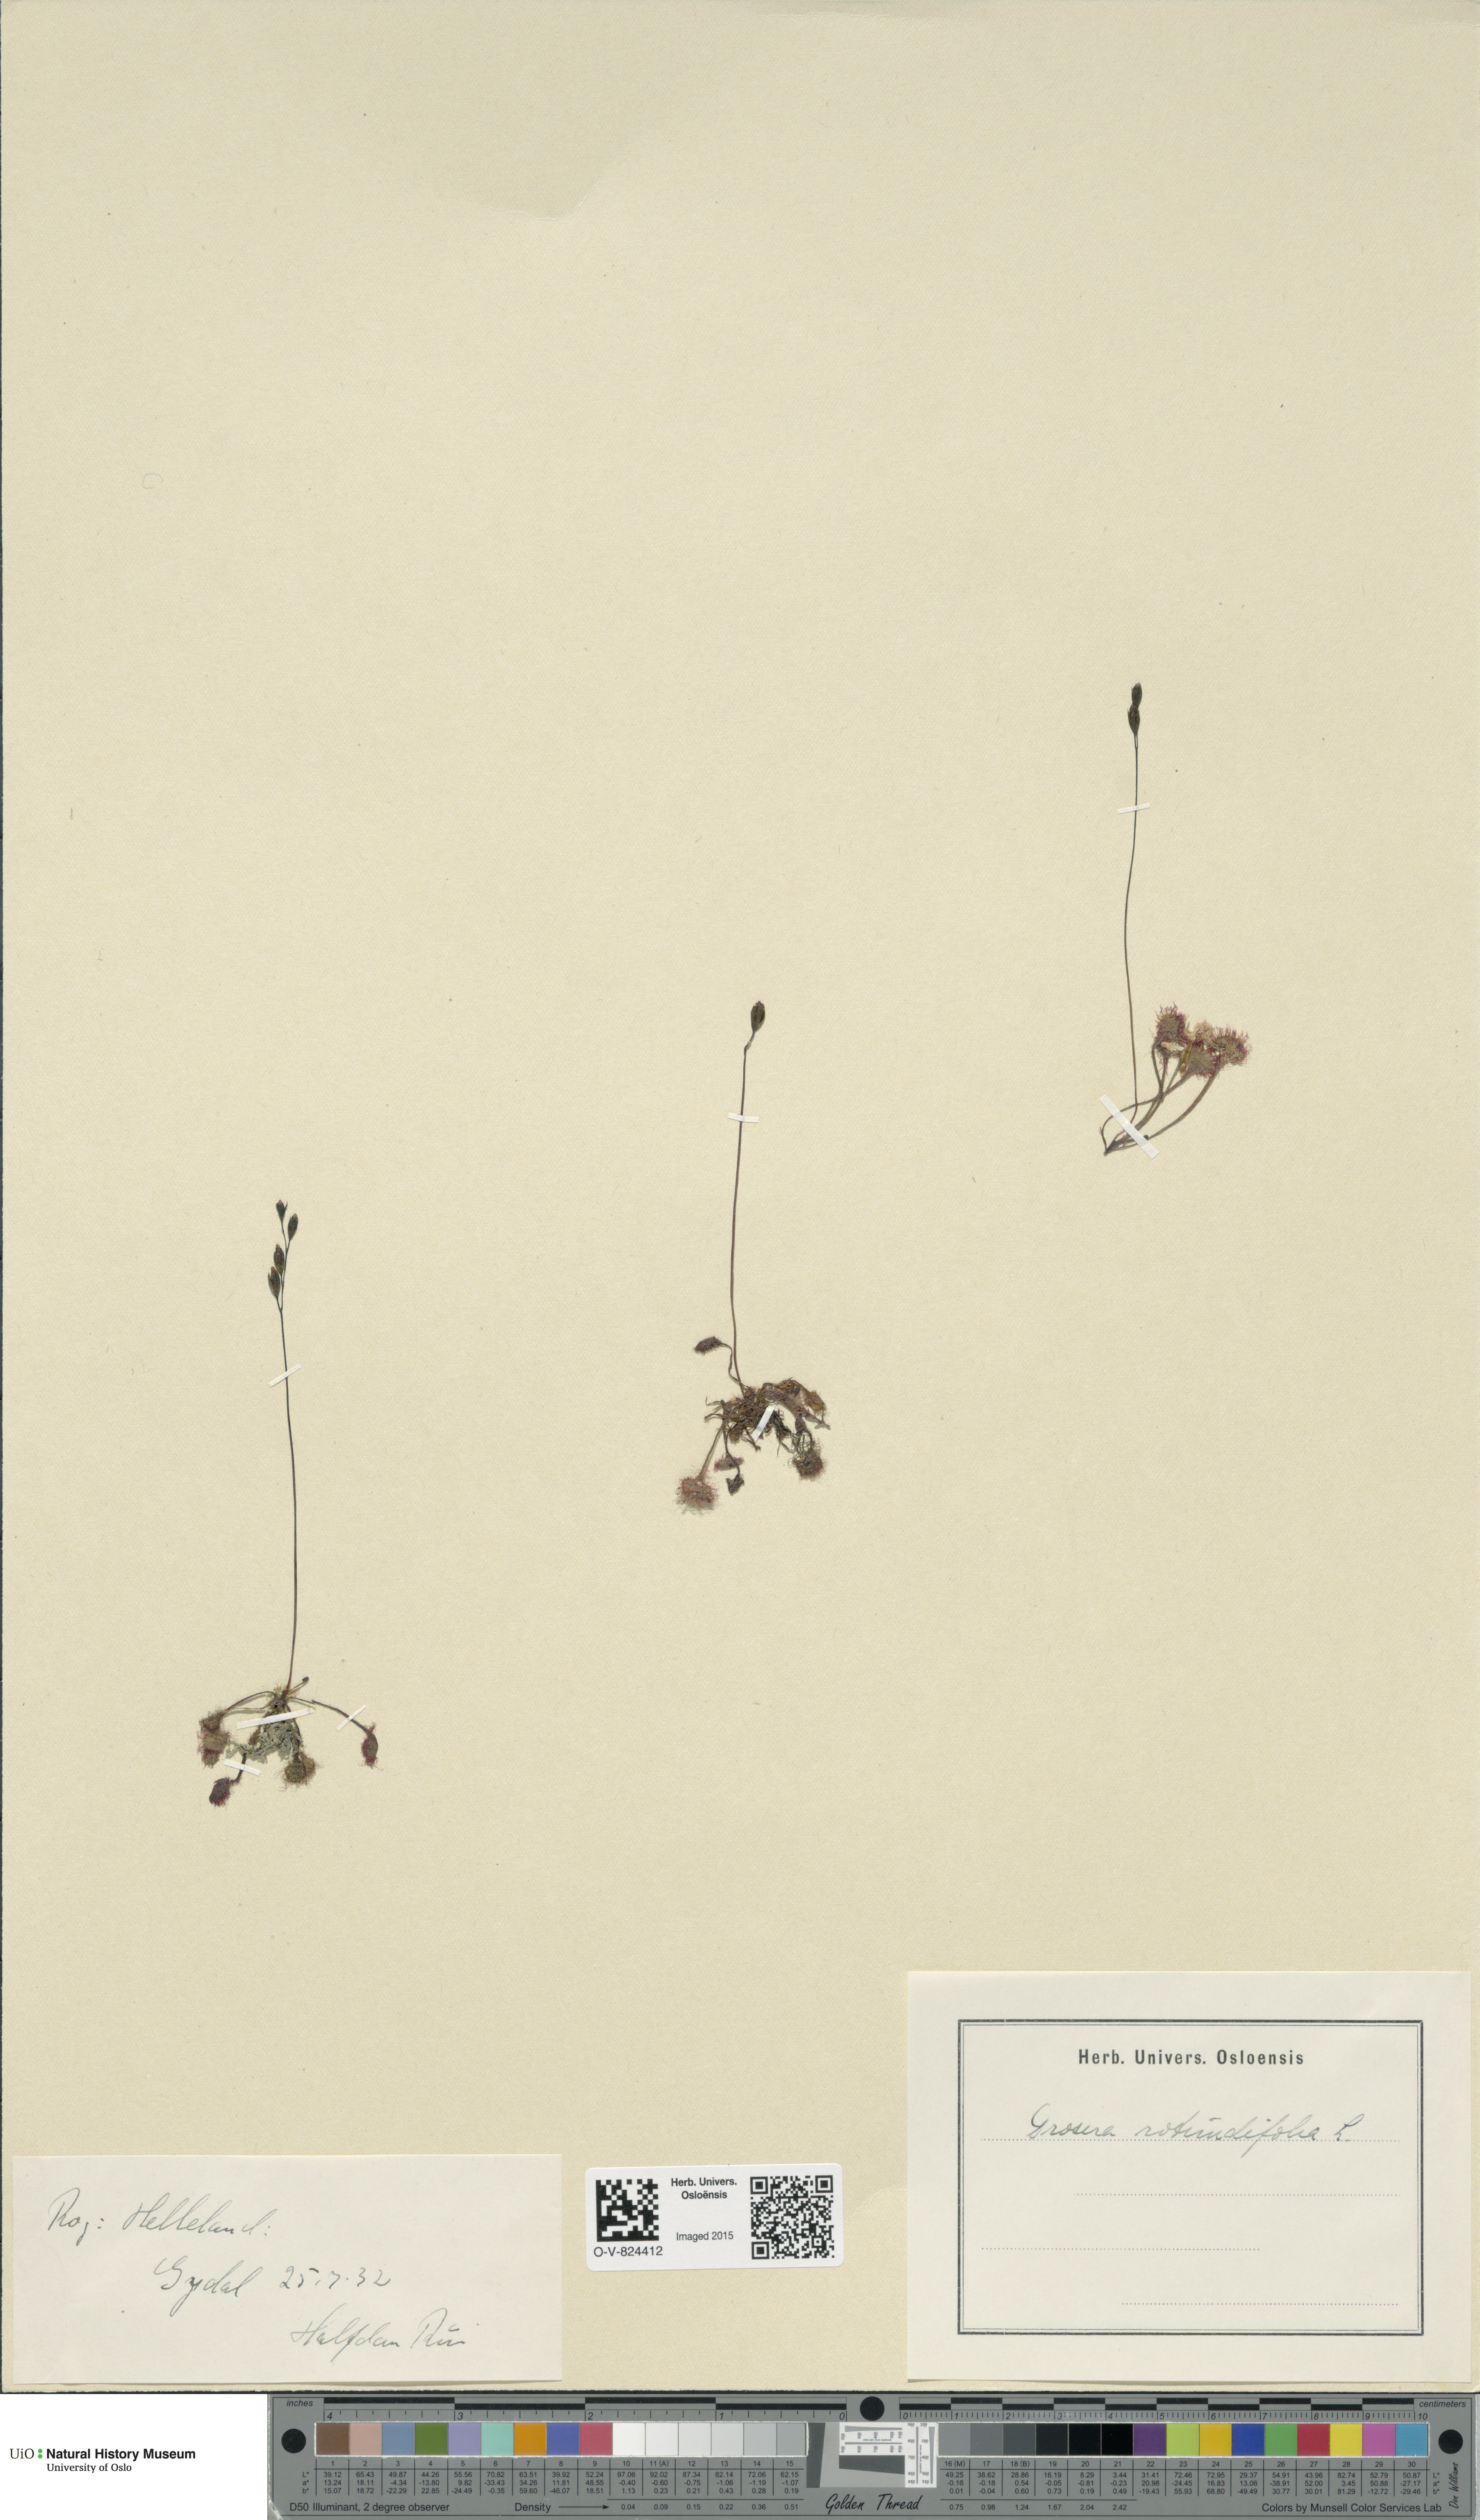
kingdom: Plantae
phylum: Tracheophyta
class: Magnoliopsida
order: Caryophyllales
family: Droseraceae
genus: Drosera
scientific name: Drosera rotundifolia
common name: Round-leaved sundew
